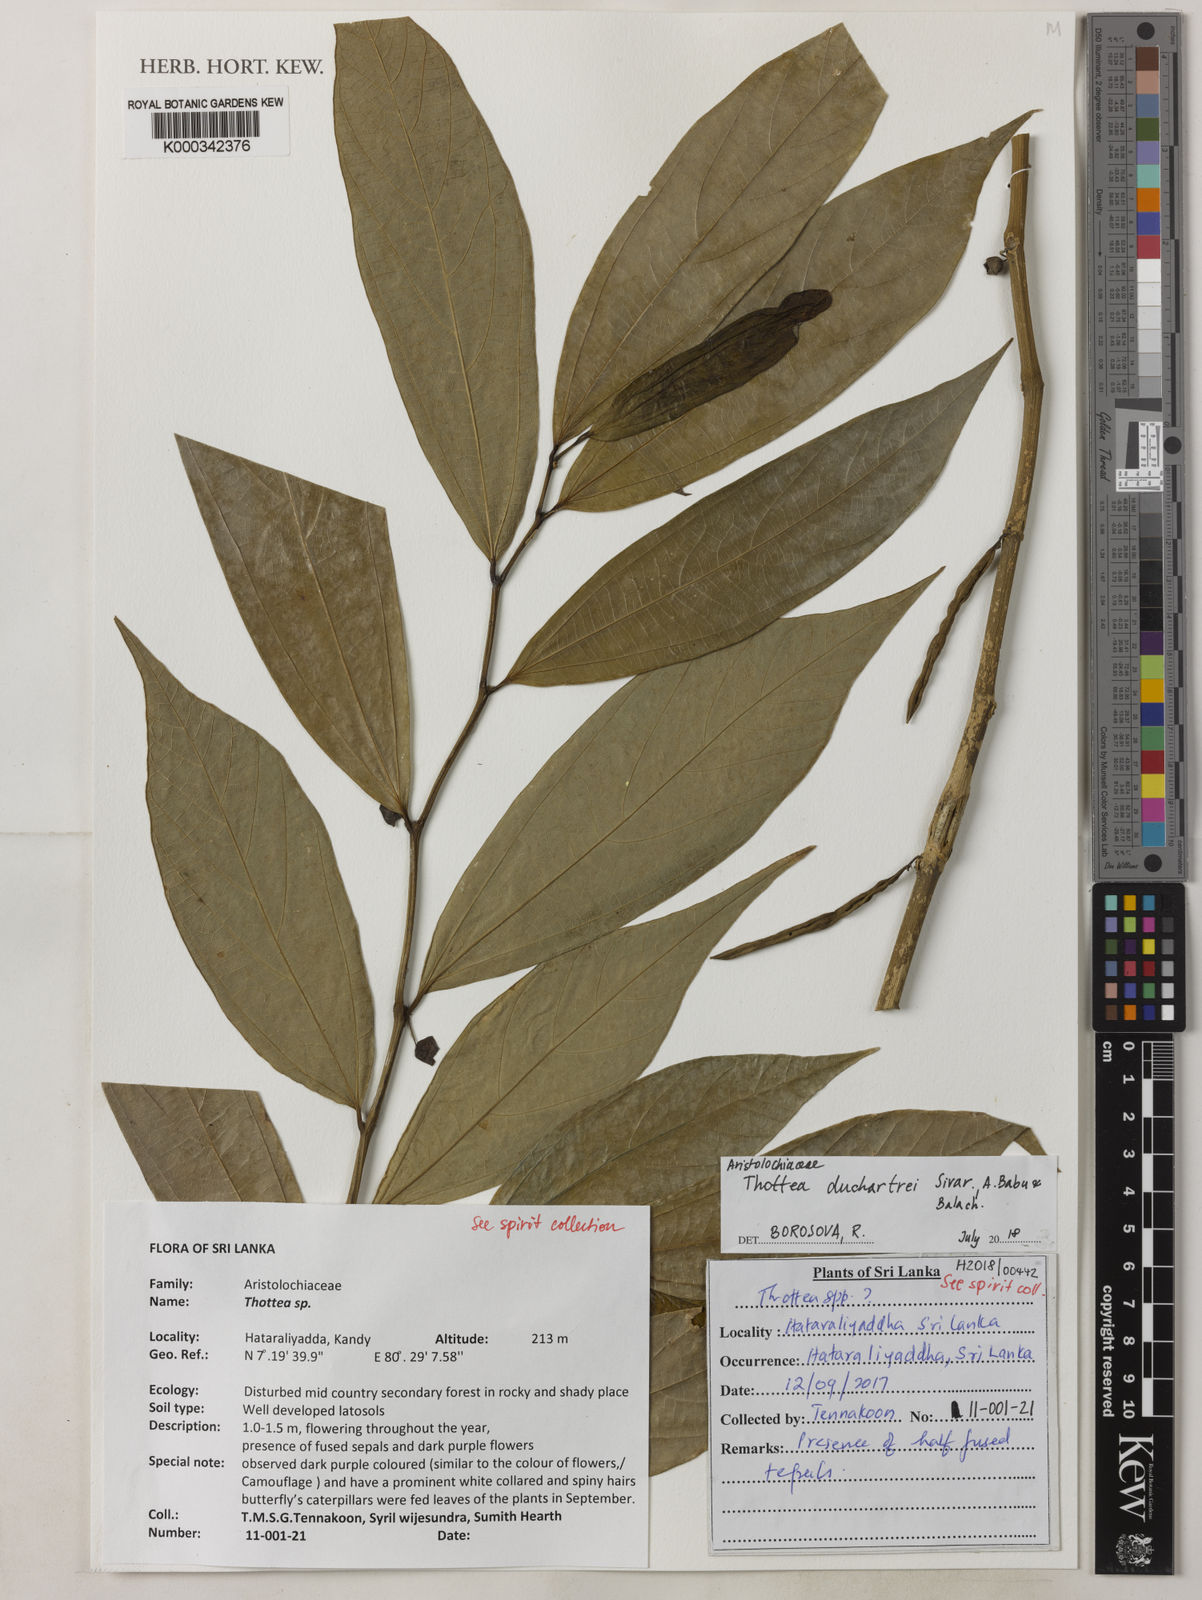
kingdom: Plantae
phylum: Tracheophyta
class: Magnoliopsida
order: Piperales
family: Aristolochiaceae
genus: Thottea
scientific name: Thottea duchartrei
